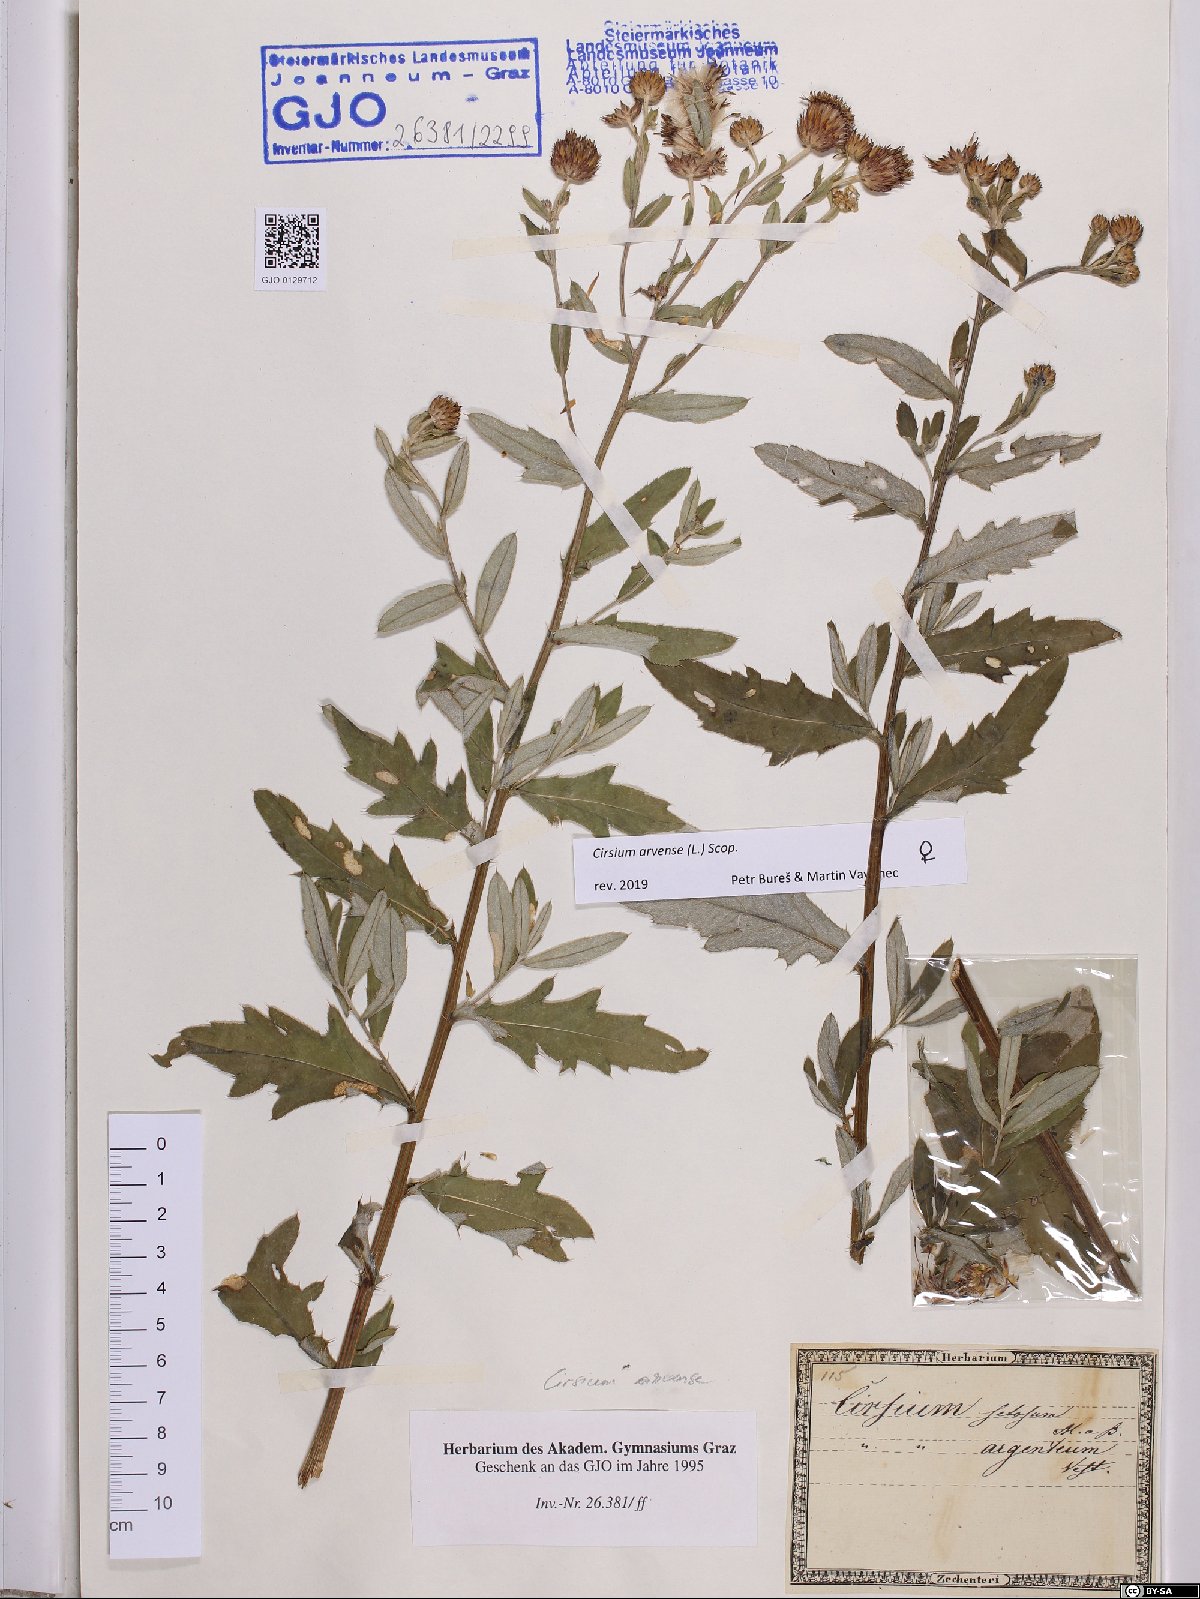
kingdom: Plantae
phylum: Tracheophyta
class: Magnoliopsida
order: Asterales
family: Asteraceae
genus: Cirsium
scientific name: Cirsium arvense
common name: Creeping thistle
